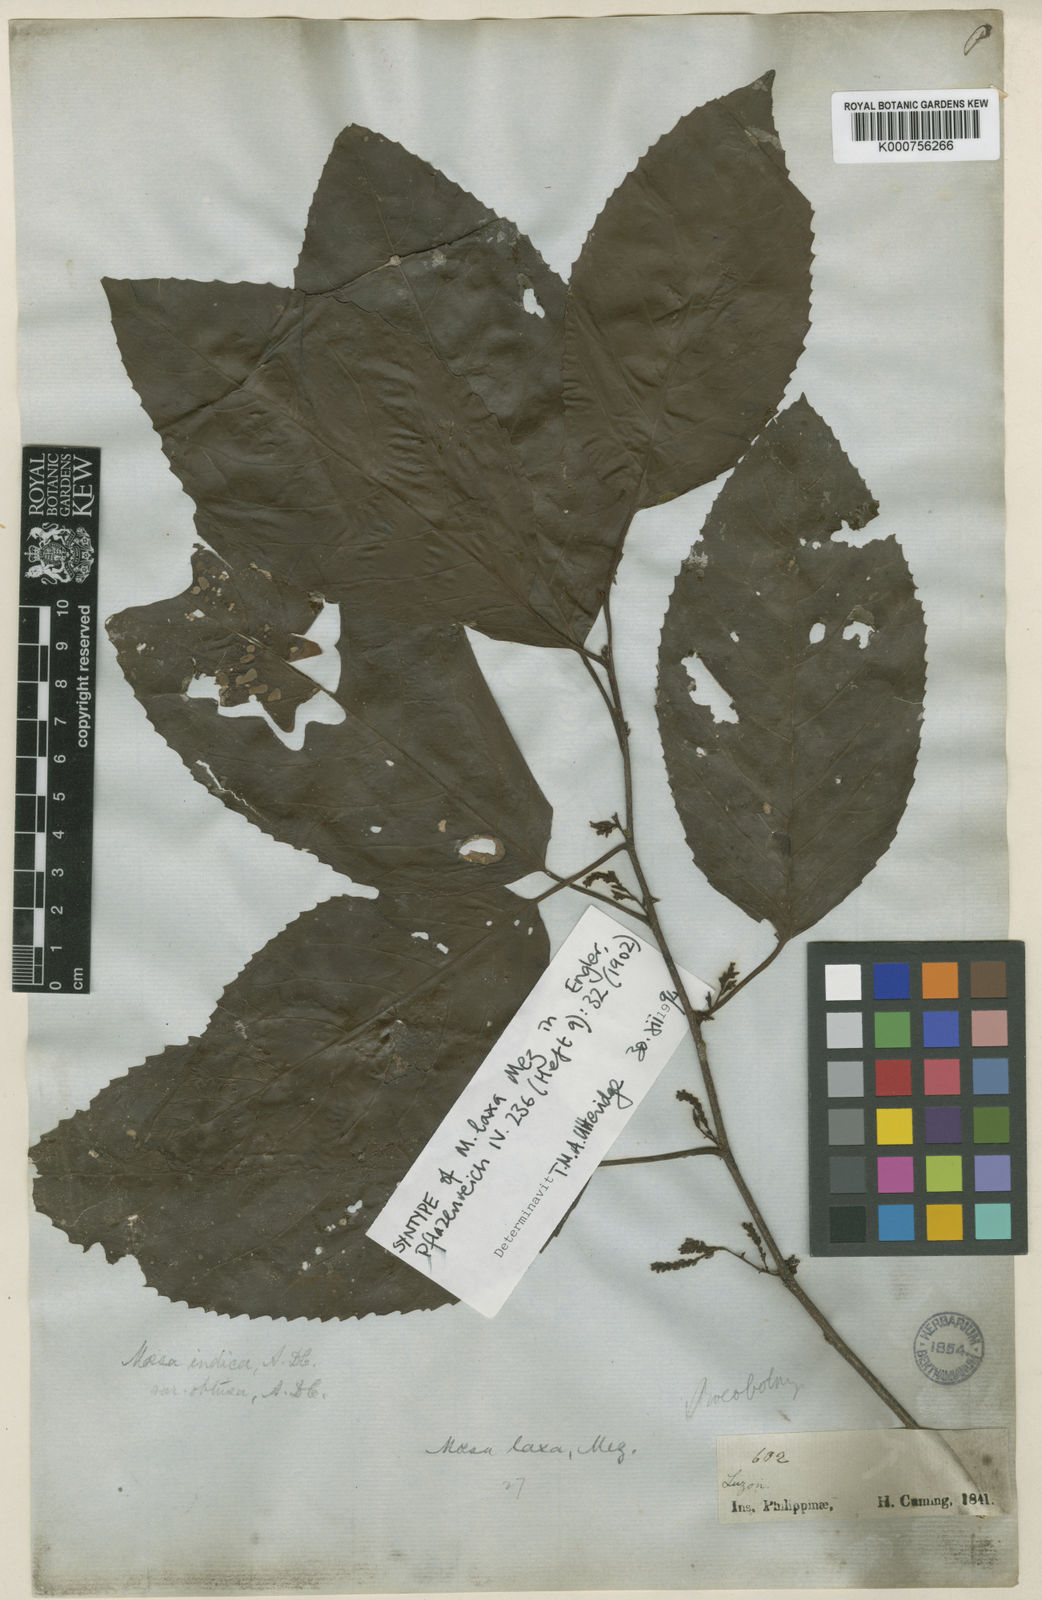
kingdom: Plantae
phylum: Tracheophyta
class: Magnoliopsida
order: Ericales
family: Primulaceae
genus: Maesa
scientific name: Maesa indica
